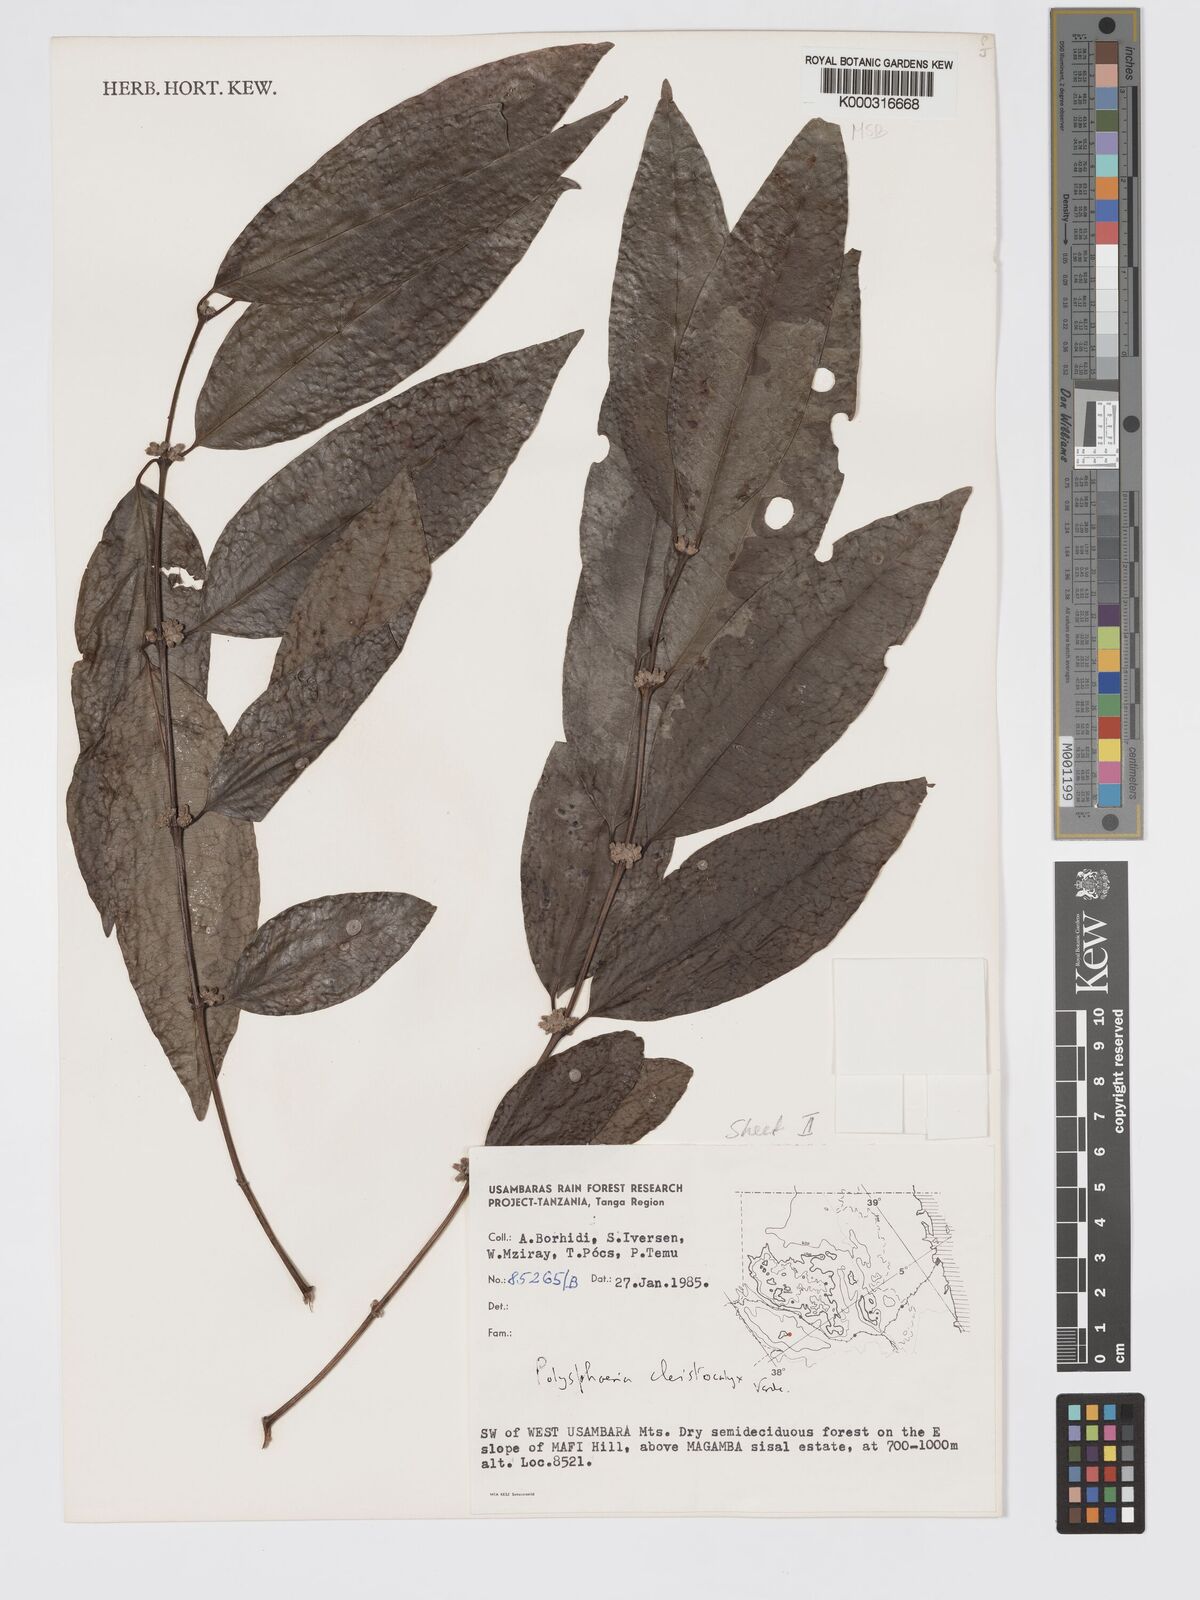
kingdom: Plantae
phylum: Tracheophyta
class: Magnoliopsida
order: Gentianales
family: Rubiaceae
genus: Polysphaeria
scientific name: Polysphaeria cleistocalyx
